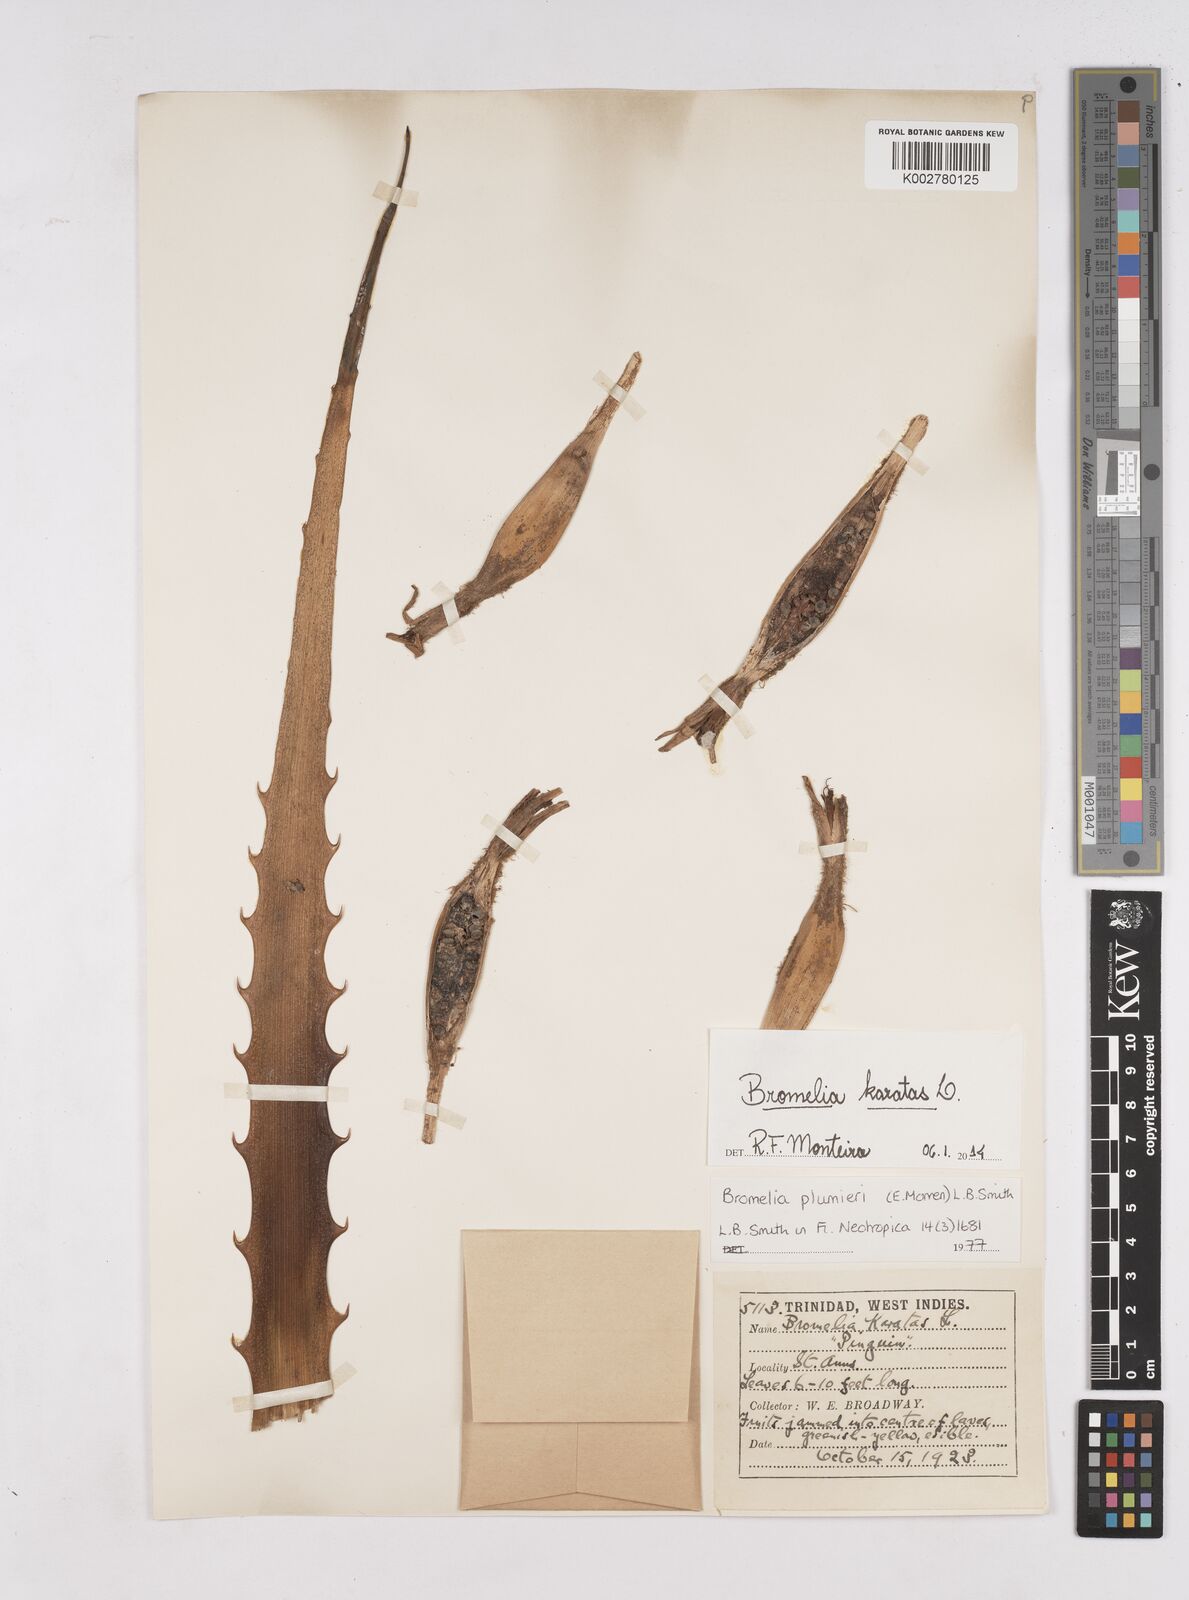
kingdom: Plantae
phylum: Tracheophyta
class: Liliopsida
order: Poales
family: Bromeliaceae
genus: Bromelia
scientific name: Bromelia karatas
